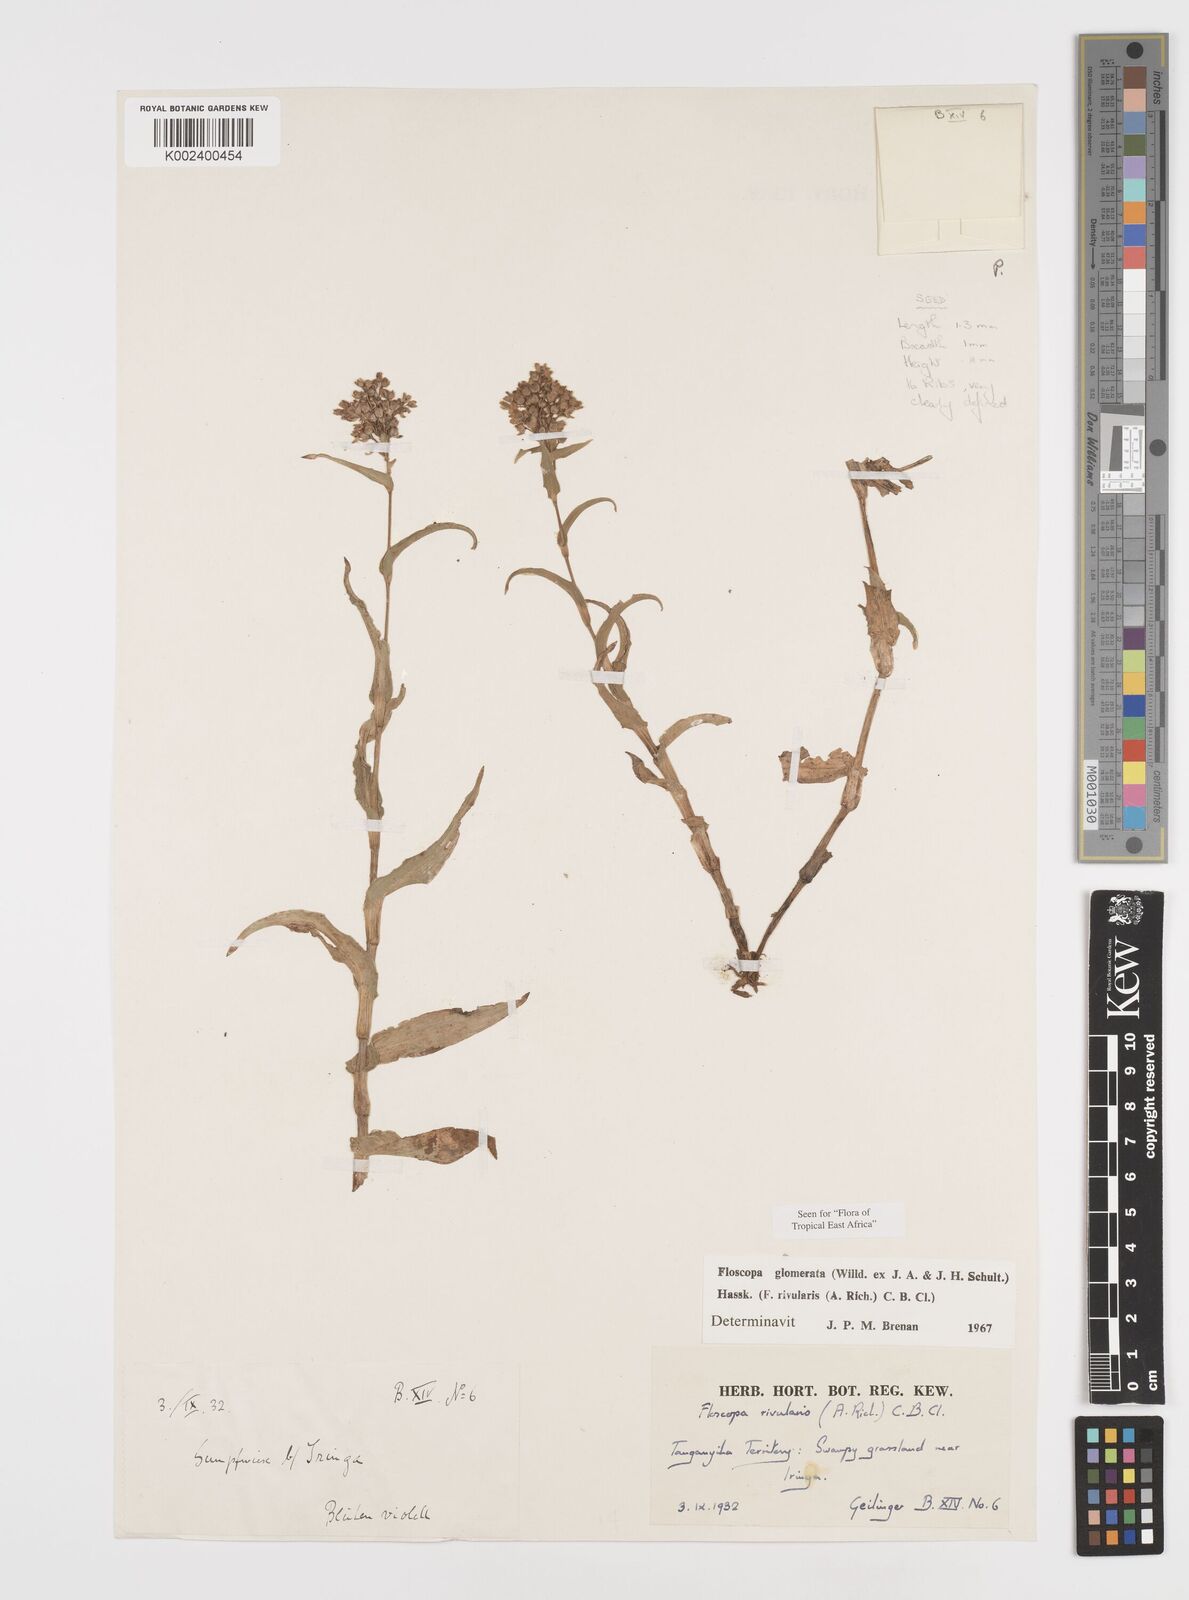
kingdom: Plantae
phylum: Tracheophyta
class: Liliopsida
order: Commelinales
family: Commelinaceae
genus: Floscopa
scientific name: Floscopa glomerata
